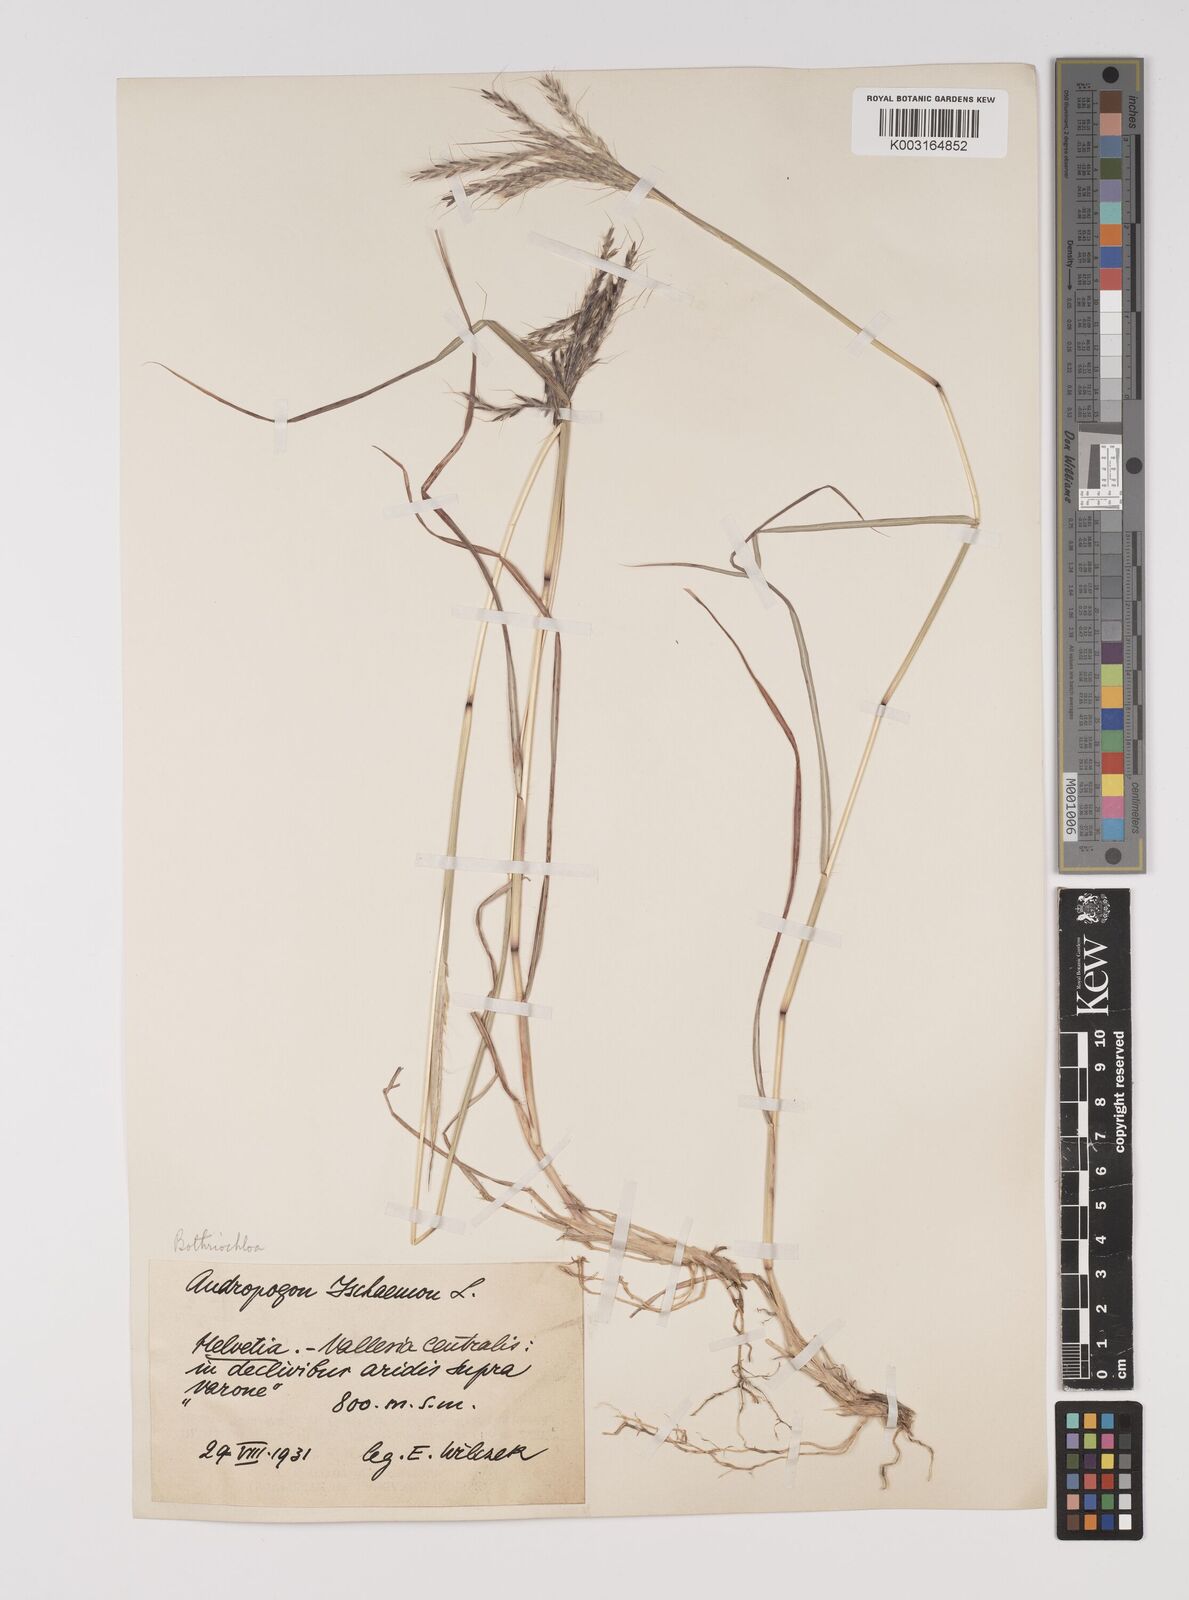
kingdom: Plantae
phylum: Tracheophyta
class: Liliopsida
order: Poales
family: Poaceae
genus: Bothriochloa
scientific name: Bothriochloa ischaemum
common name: Yellow bluestem
